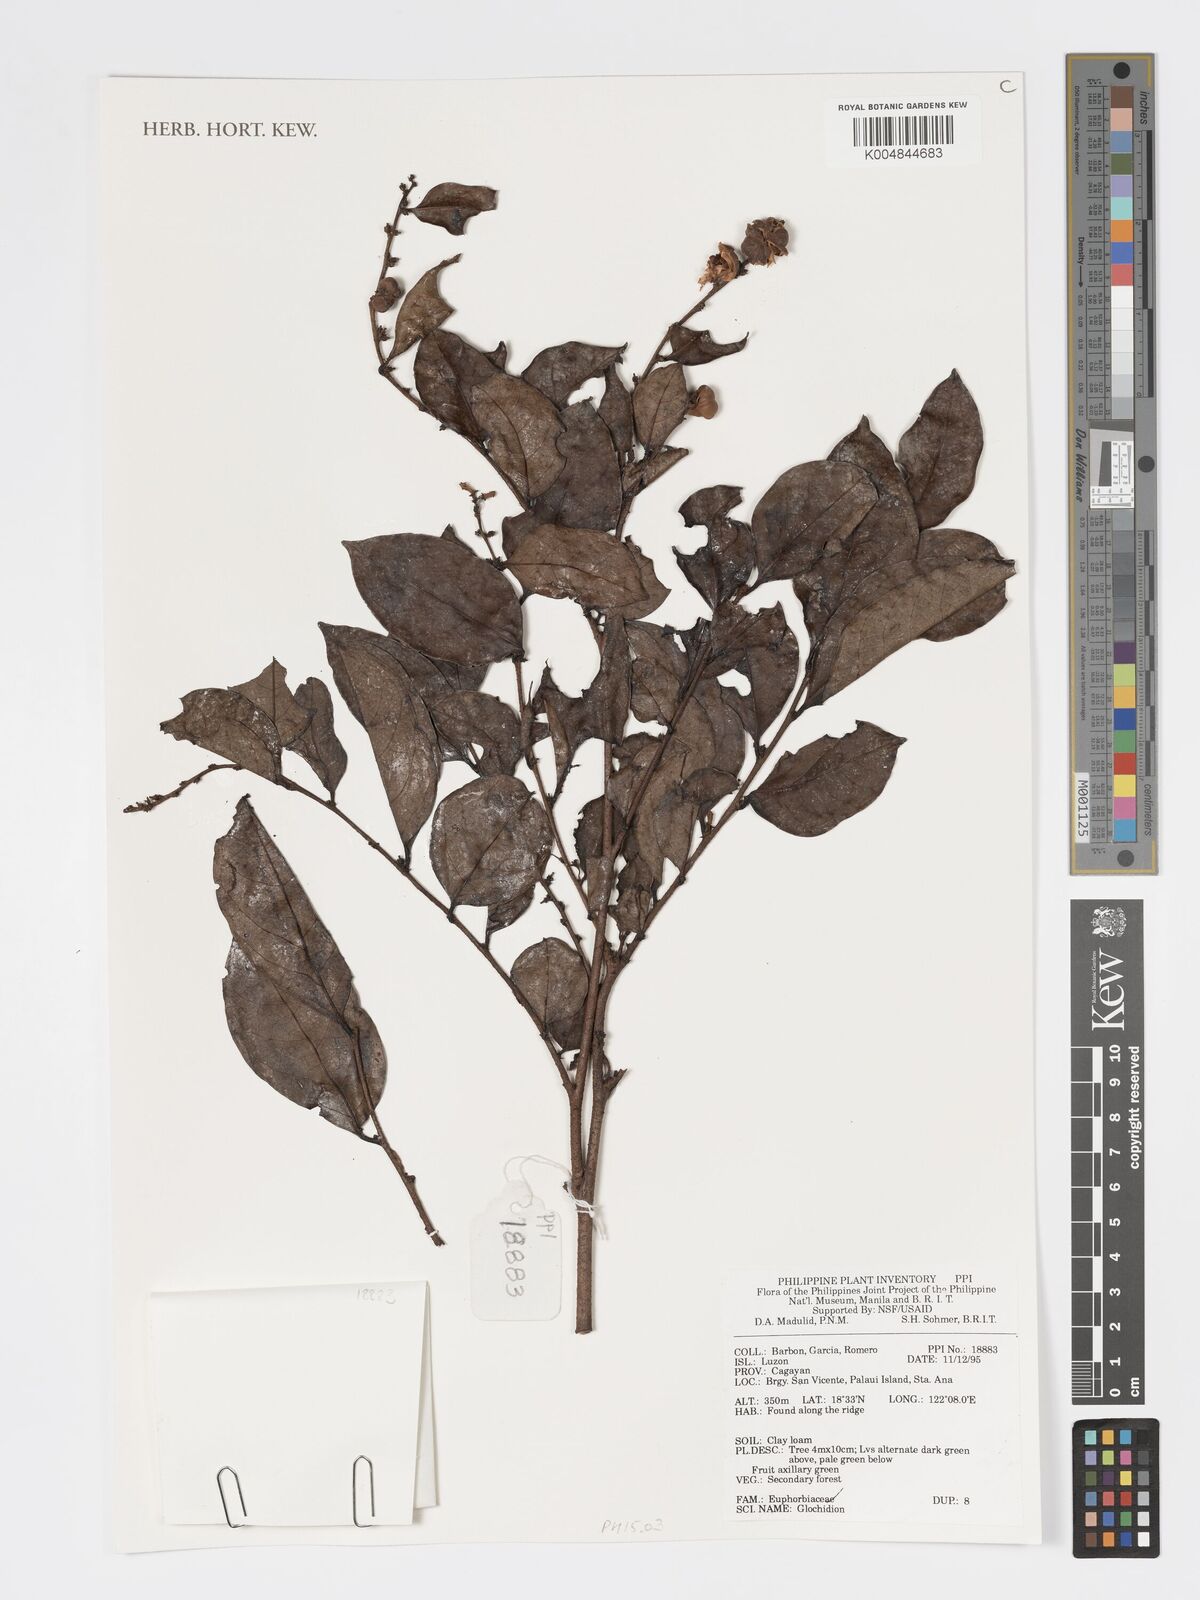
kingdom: Plantae
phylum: Tracheophyta
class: Magnoliopsida
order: Malpighiales
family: Phyllanthaceae
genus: Glochidion
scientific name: Glochidion
